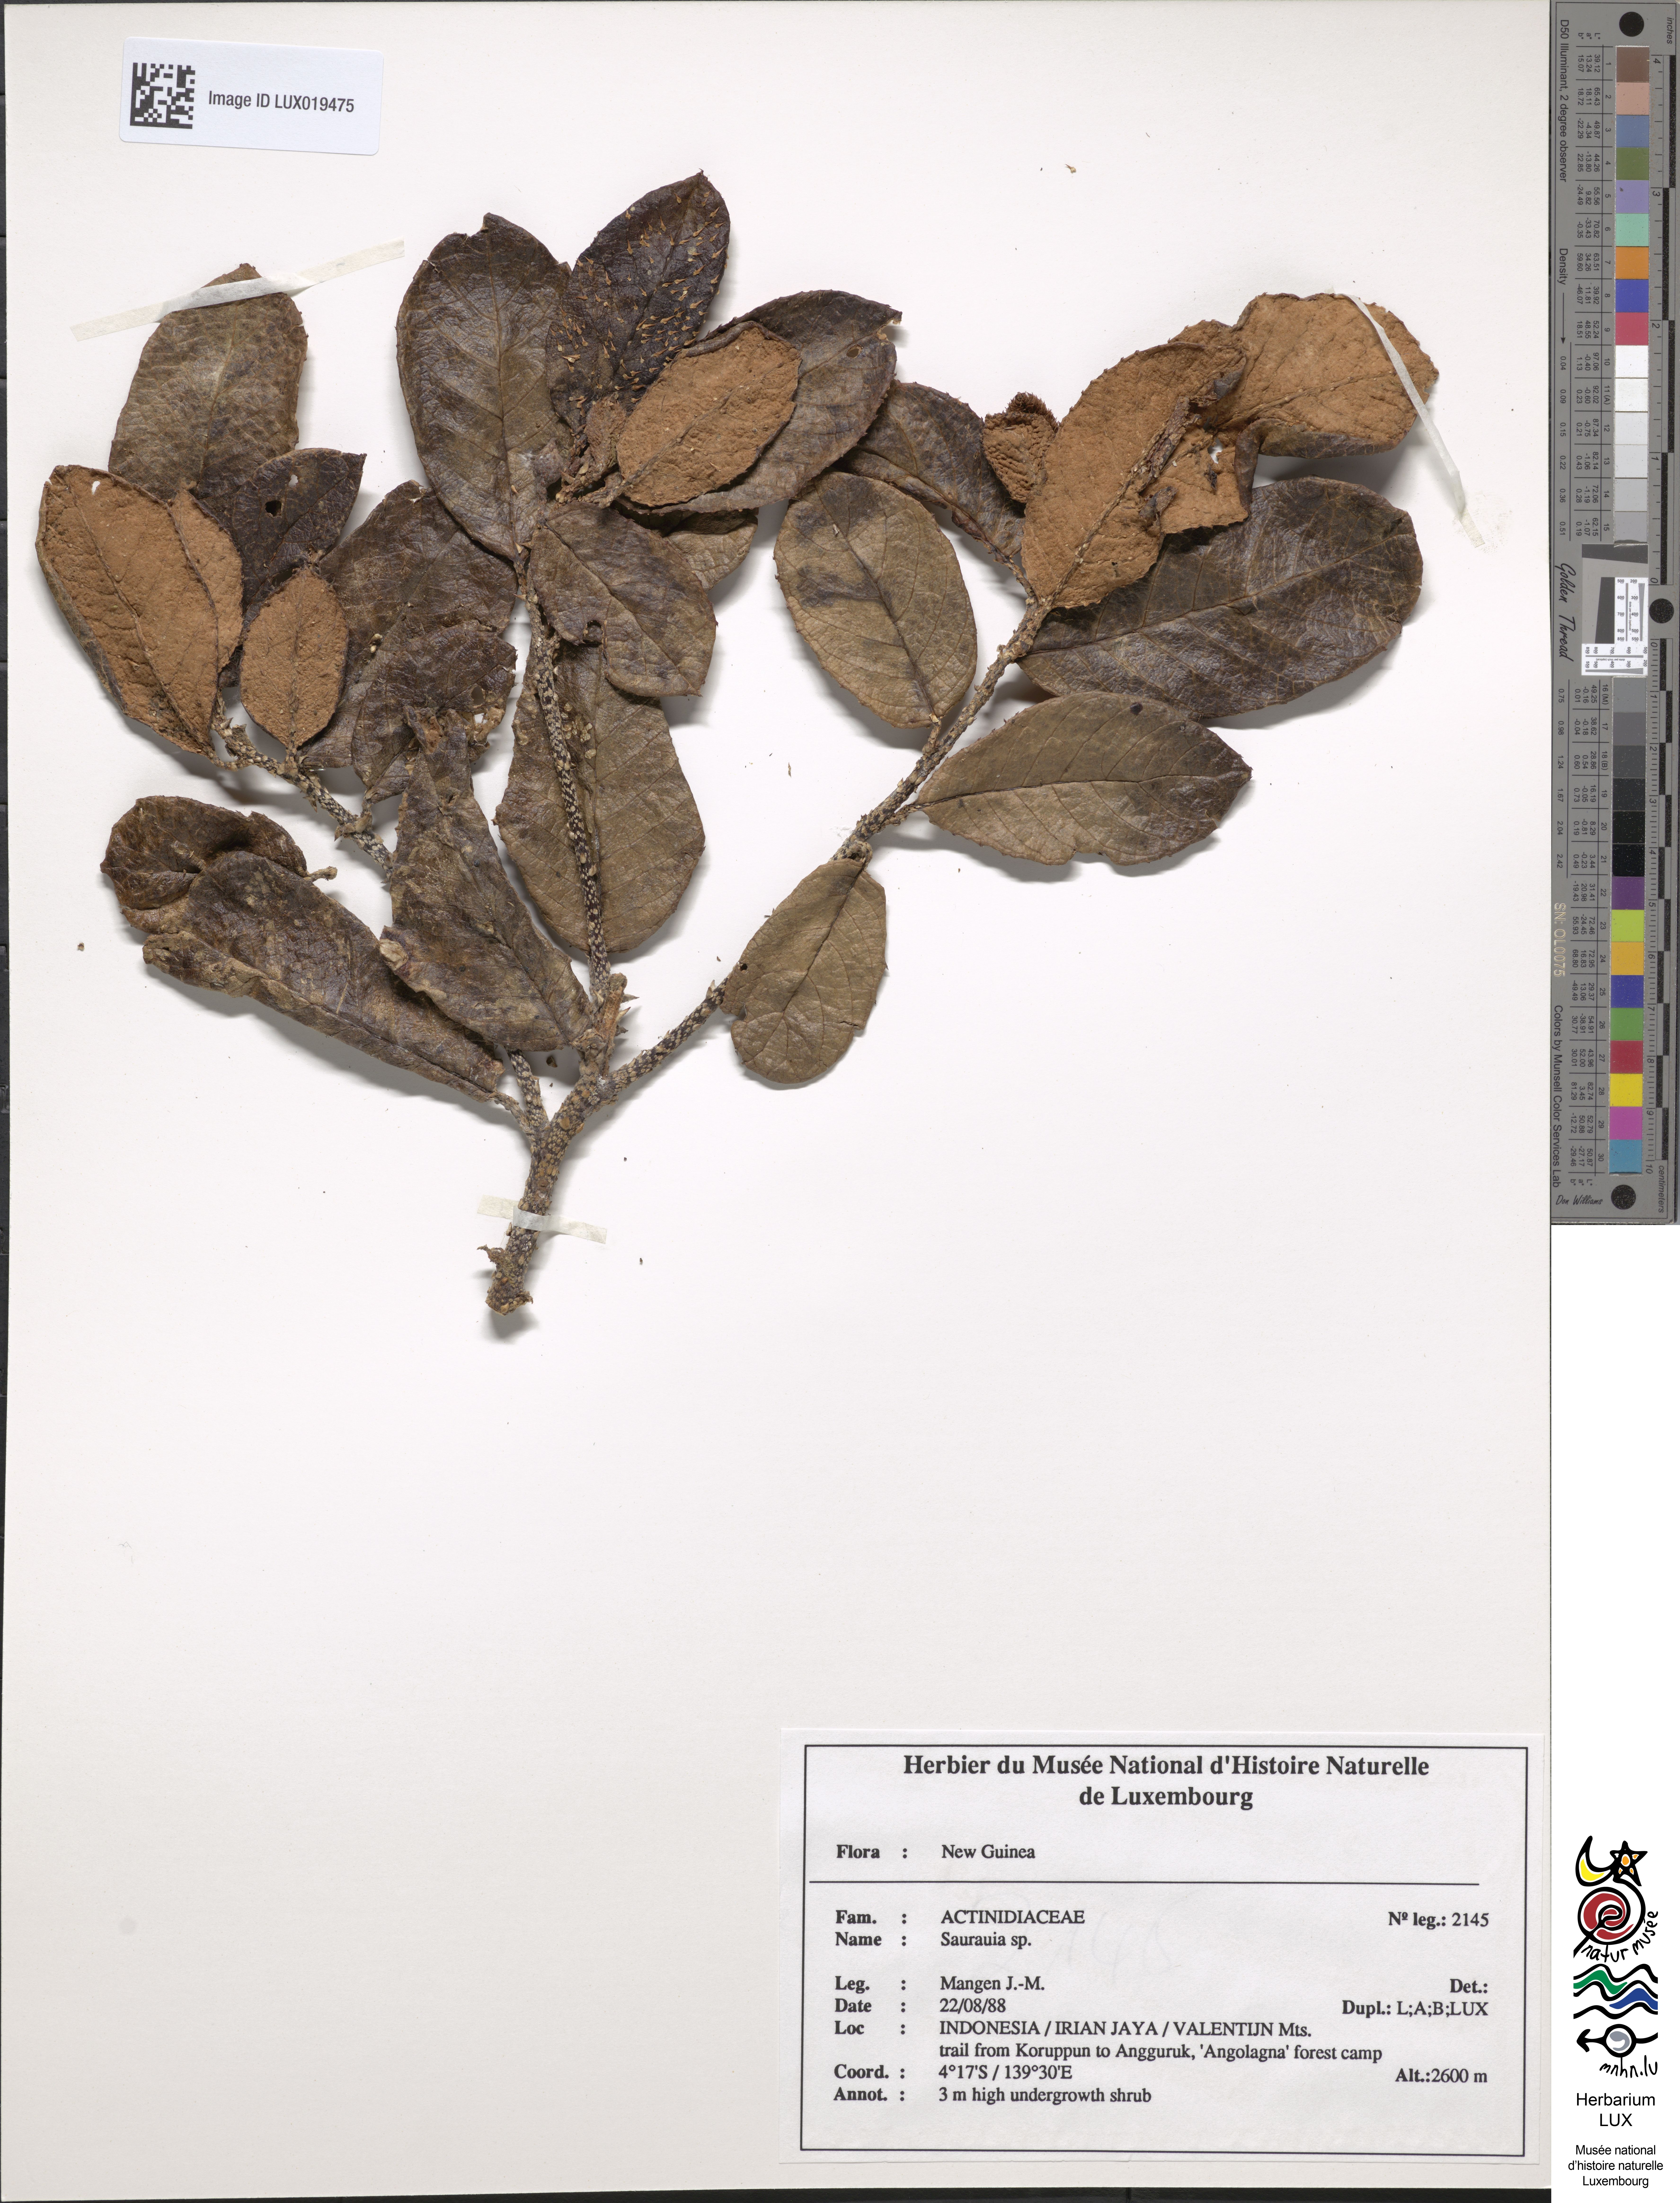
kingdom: Plantae
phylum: Tracheophyta
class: Magnoliopsida
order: Ericales
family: Actinidiaceae
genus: Saurauia
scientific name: Saurauia
